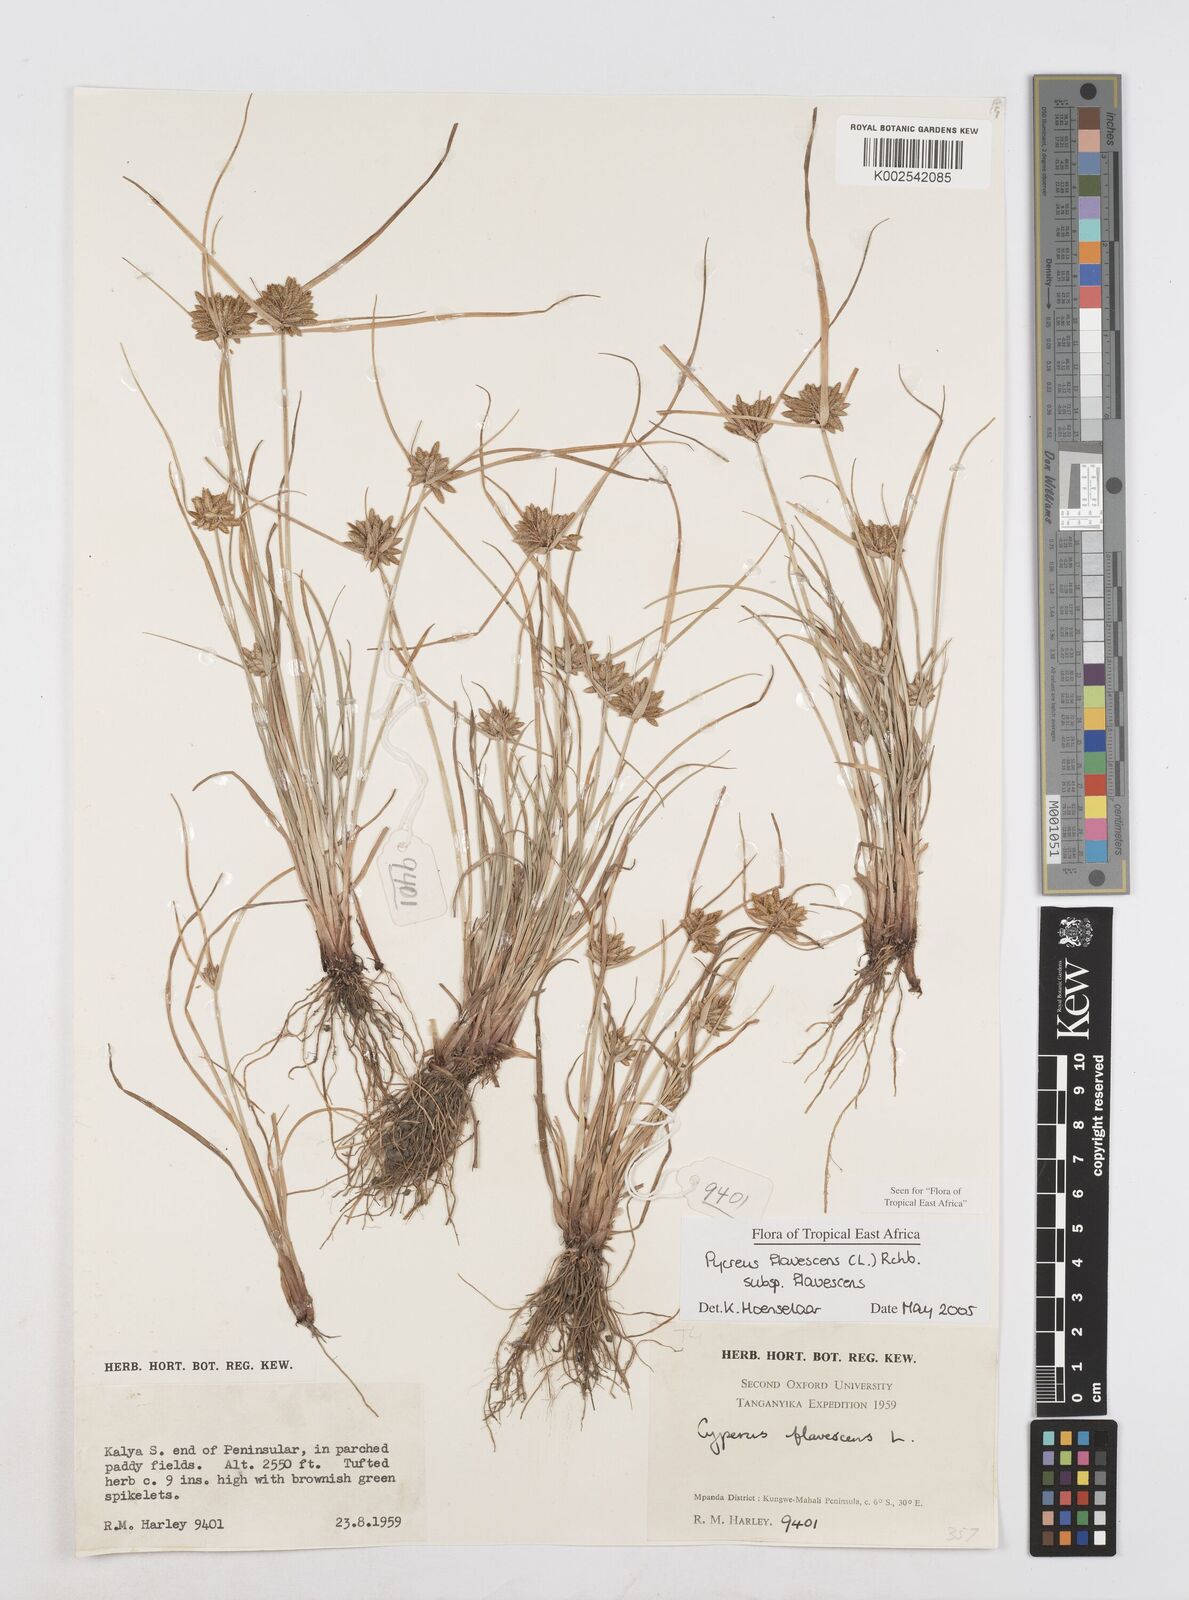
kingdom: Plantae
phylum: Tracheophyta
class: Liliopsida
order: Poales
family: Cyperaceae
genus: Cyperus
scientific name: Cyperus flavescens
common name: Yellow galingale
